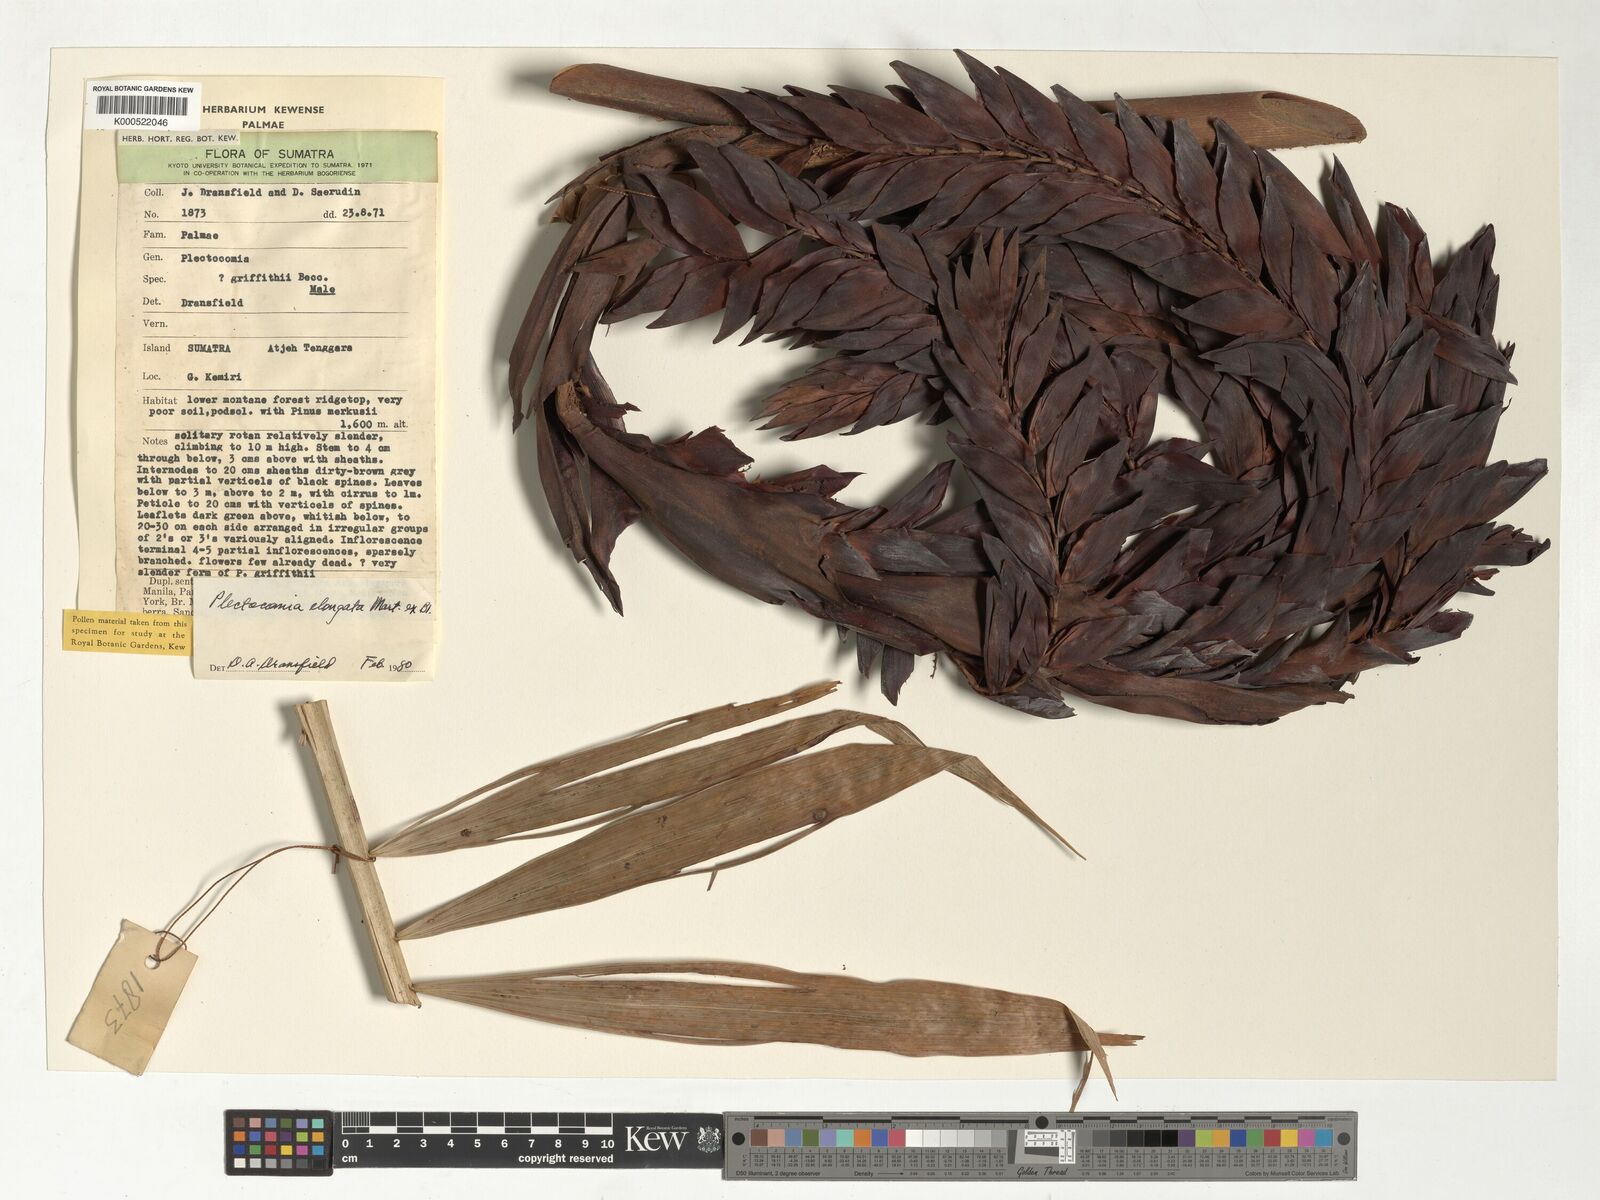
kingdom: Plantae
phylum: Tracheophyta
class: Liliopsida
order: Arecales
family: Arecaceae
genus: Plectocomia
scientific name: Plectocomia elongata
